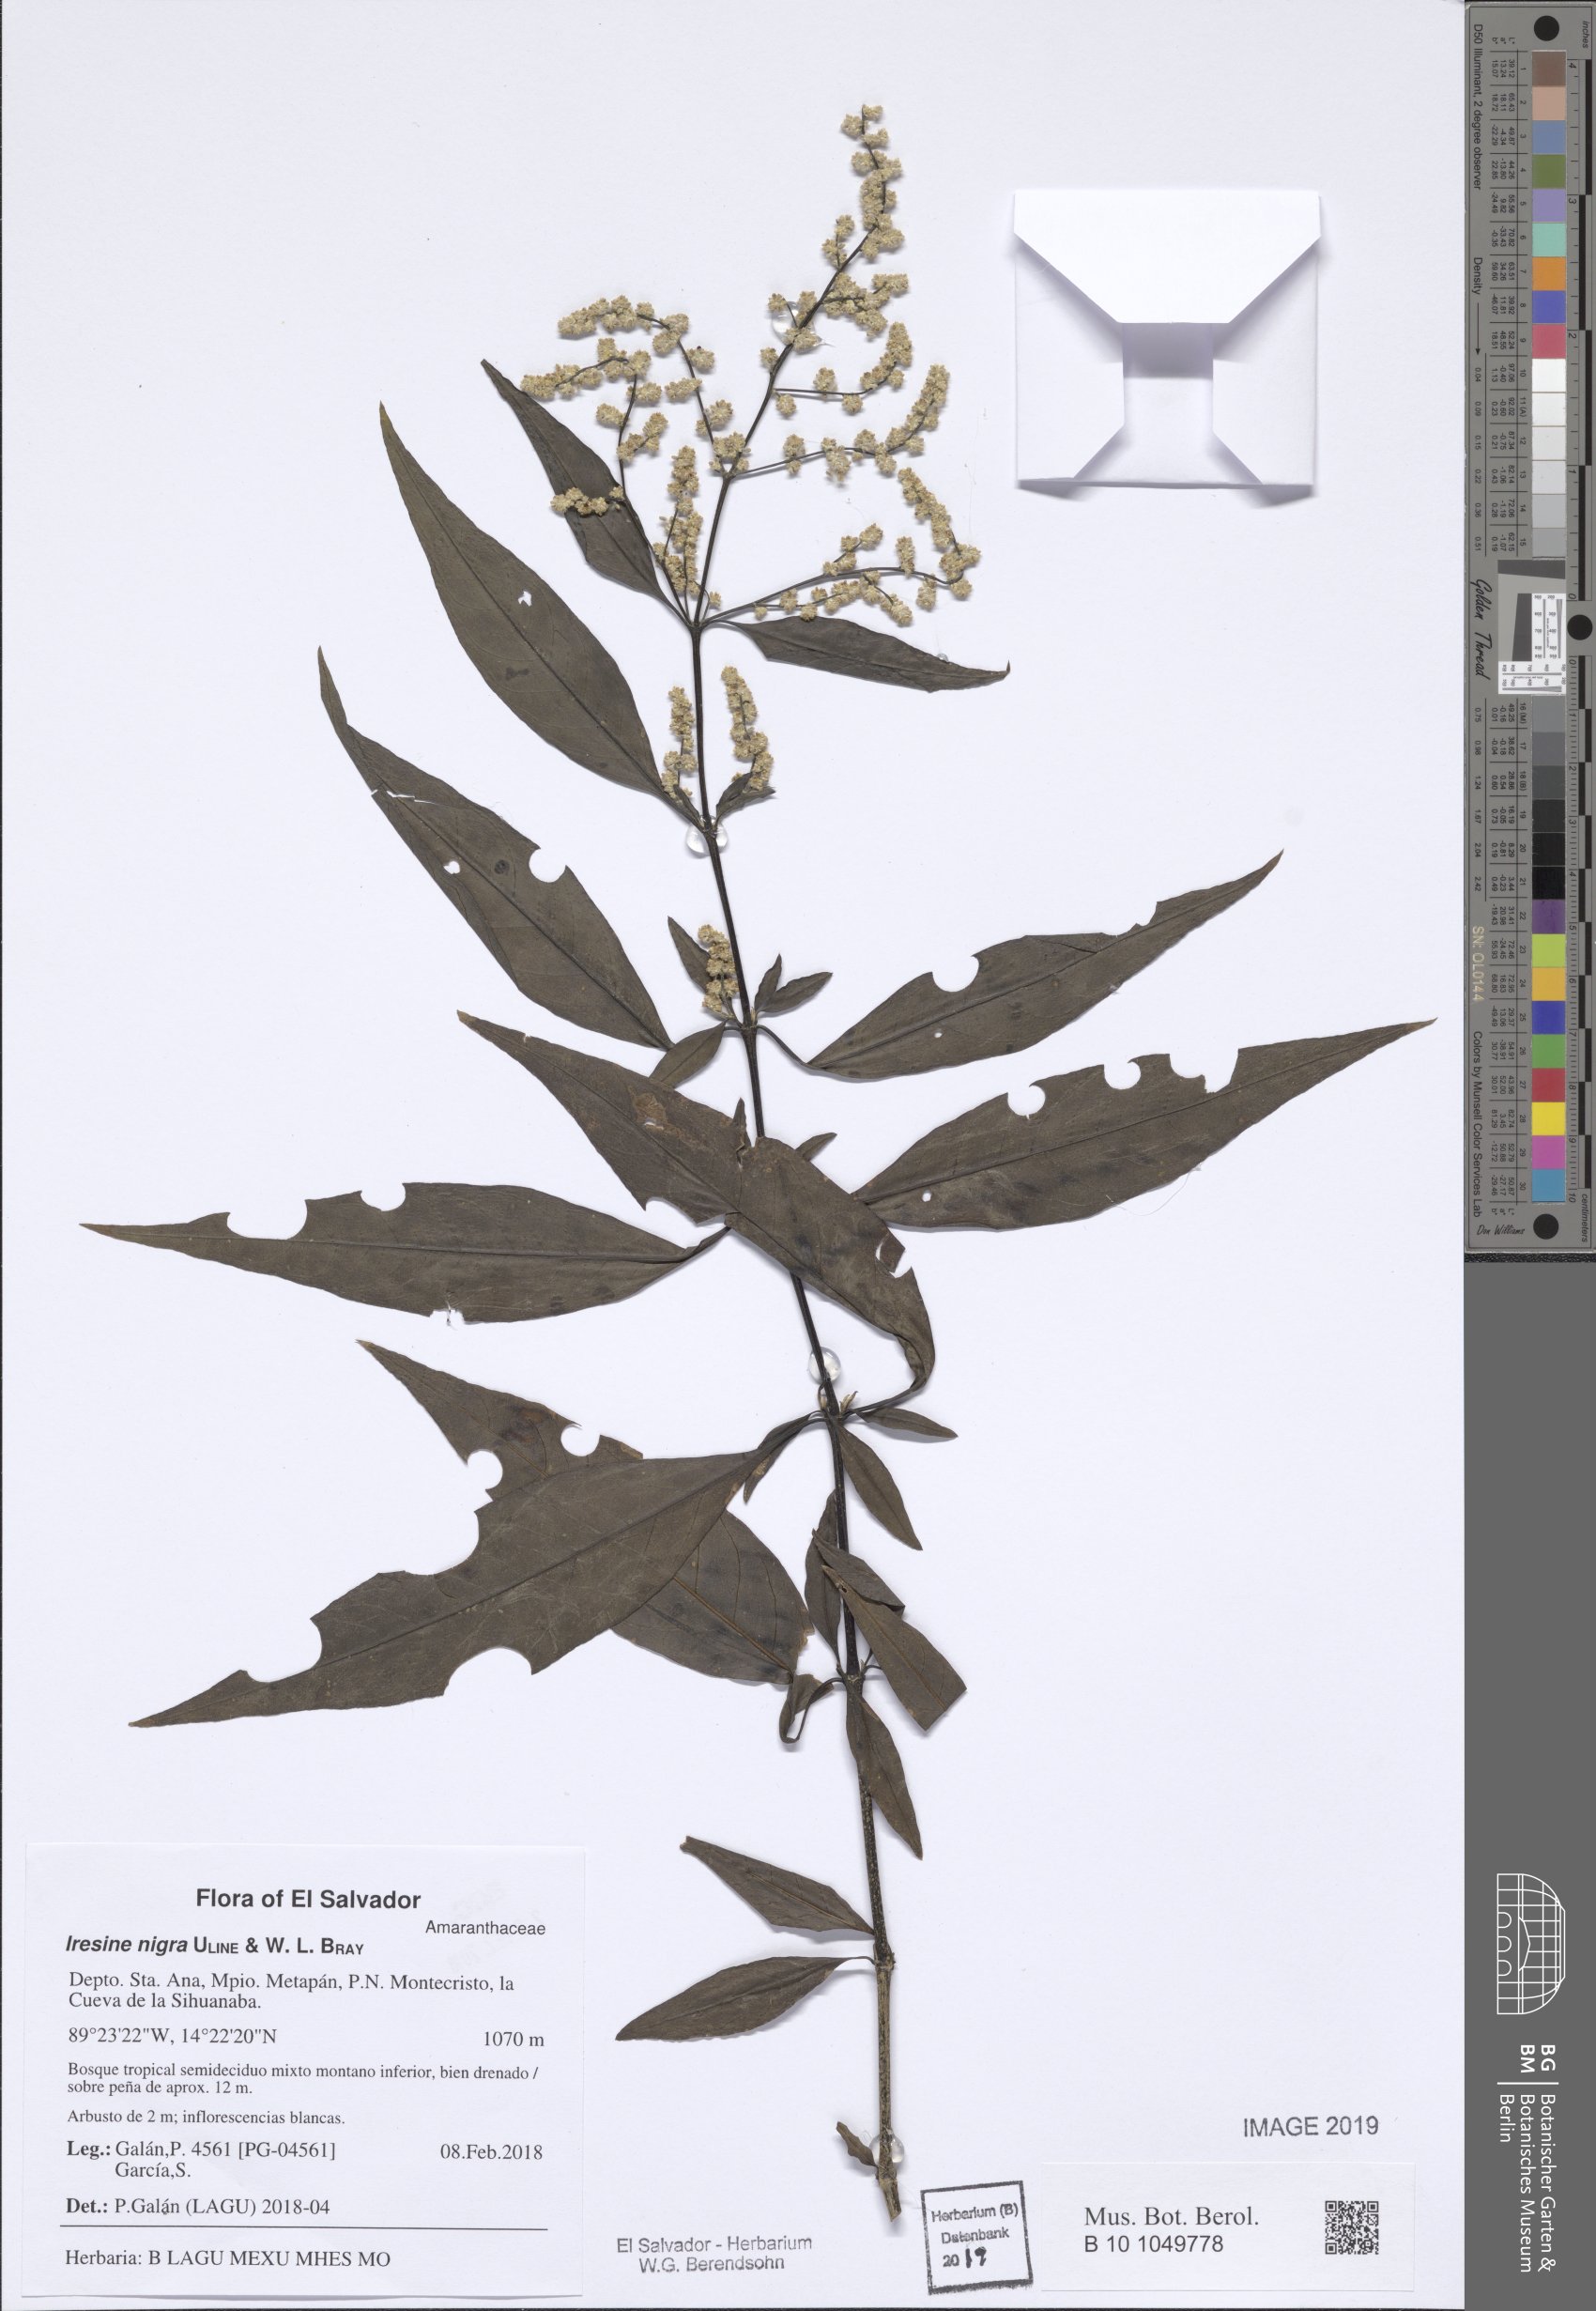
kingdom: Plantae
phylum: Tracheophyta
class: Magnoliopsida
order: Caryophyllales
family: Amaranthaceae
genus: Iresine
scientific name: Iresine nigra
